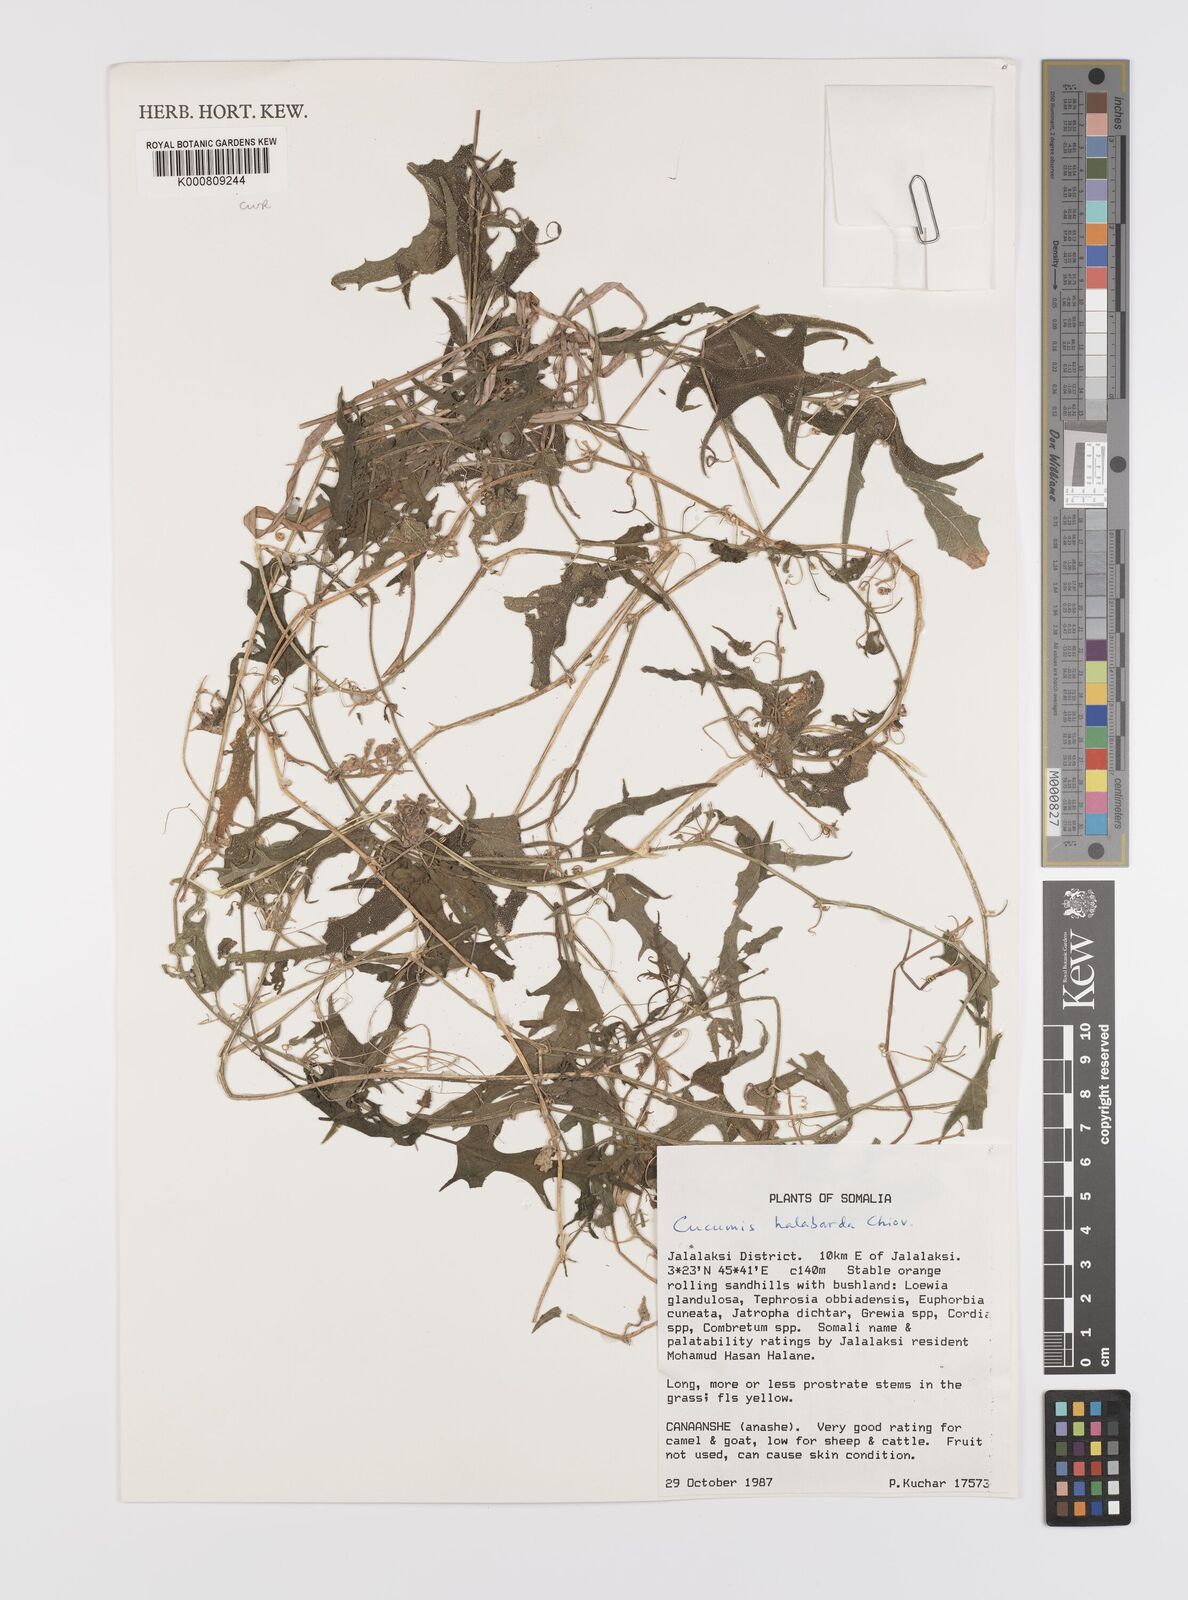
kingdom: Plantae
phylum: Tracheophyta
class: Magnoliopsida
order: Cucurbitales
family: Cucurbitaceae
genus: Cucumis
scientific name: Cucumis prophetarum
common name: Wild cucumber
